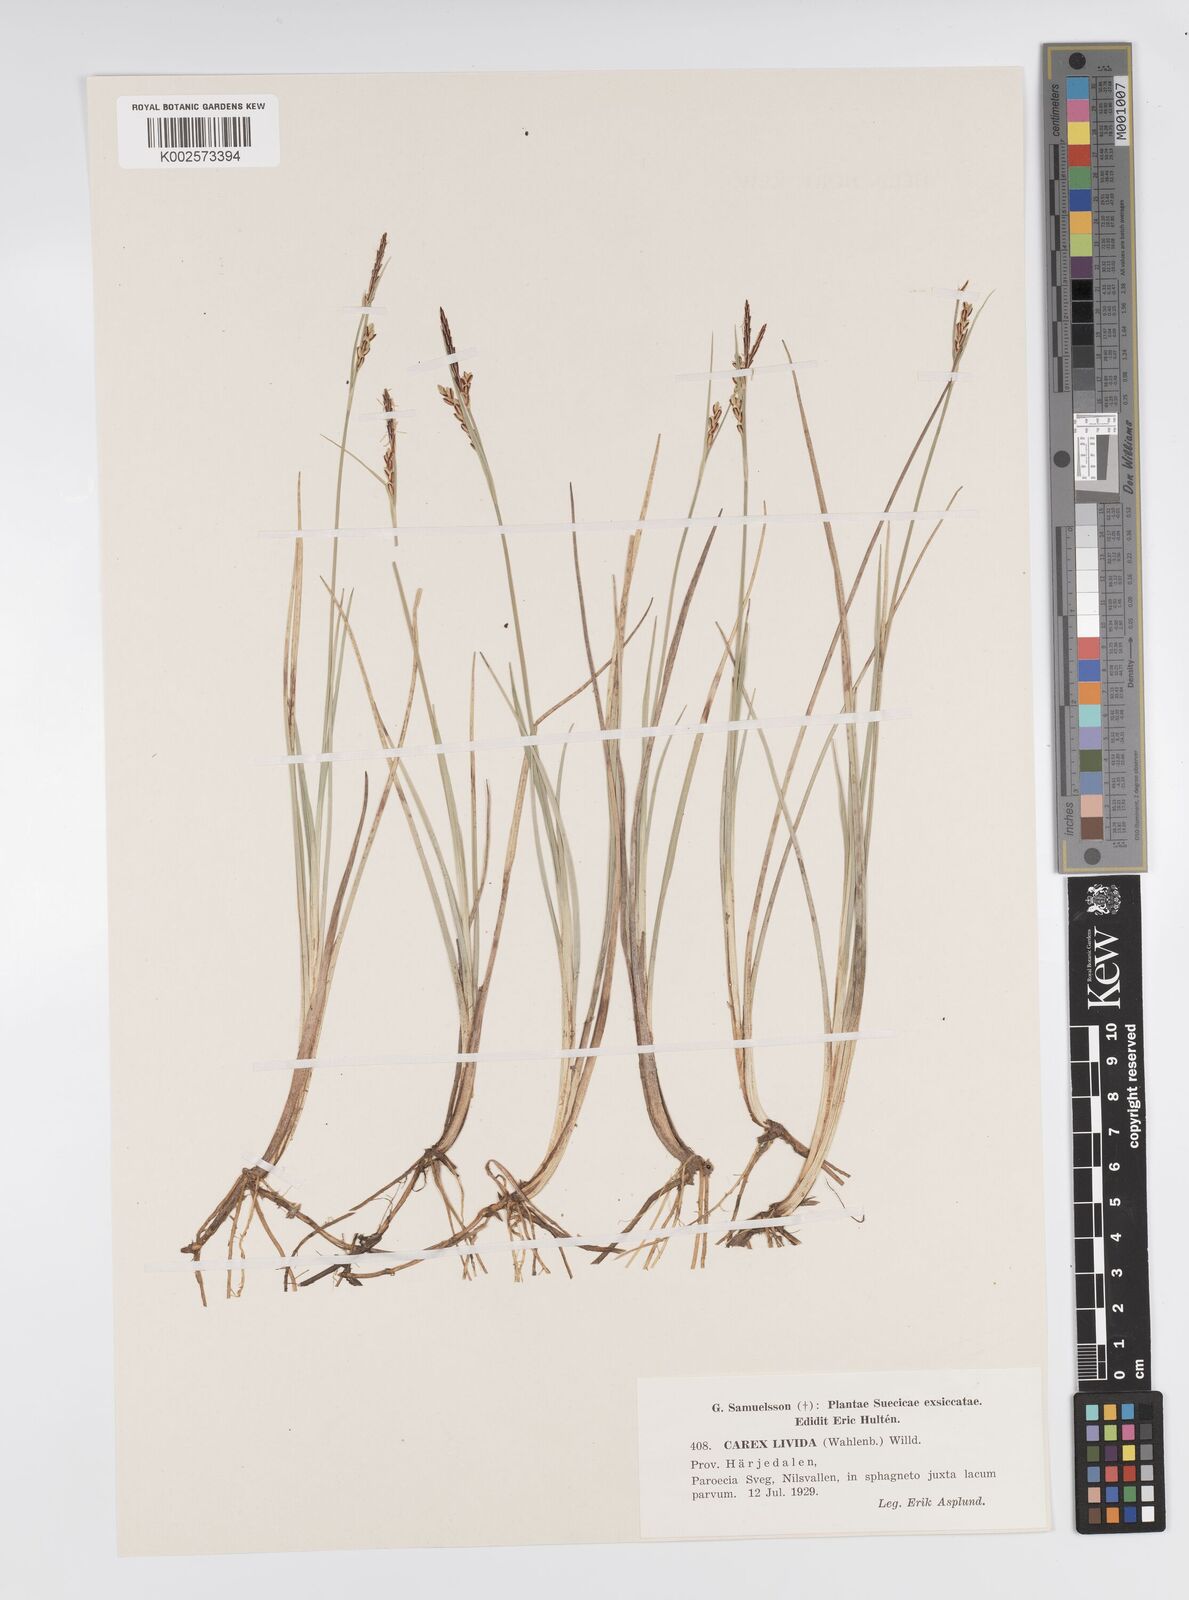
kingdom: Plantae
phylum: Tracheophyta
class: Liliopsida
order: Poales
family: Cyperaceae
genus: Carex
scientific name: Carex livida
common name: Livid sedge
